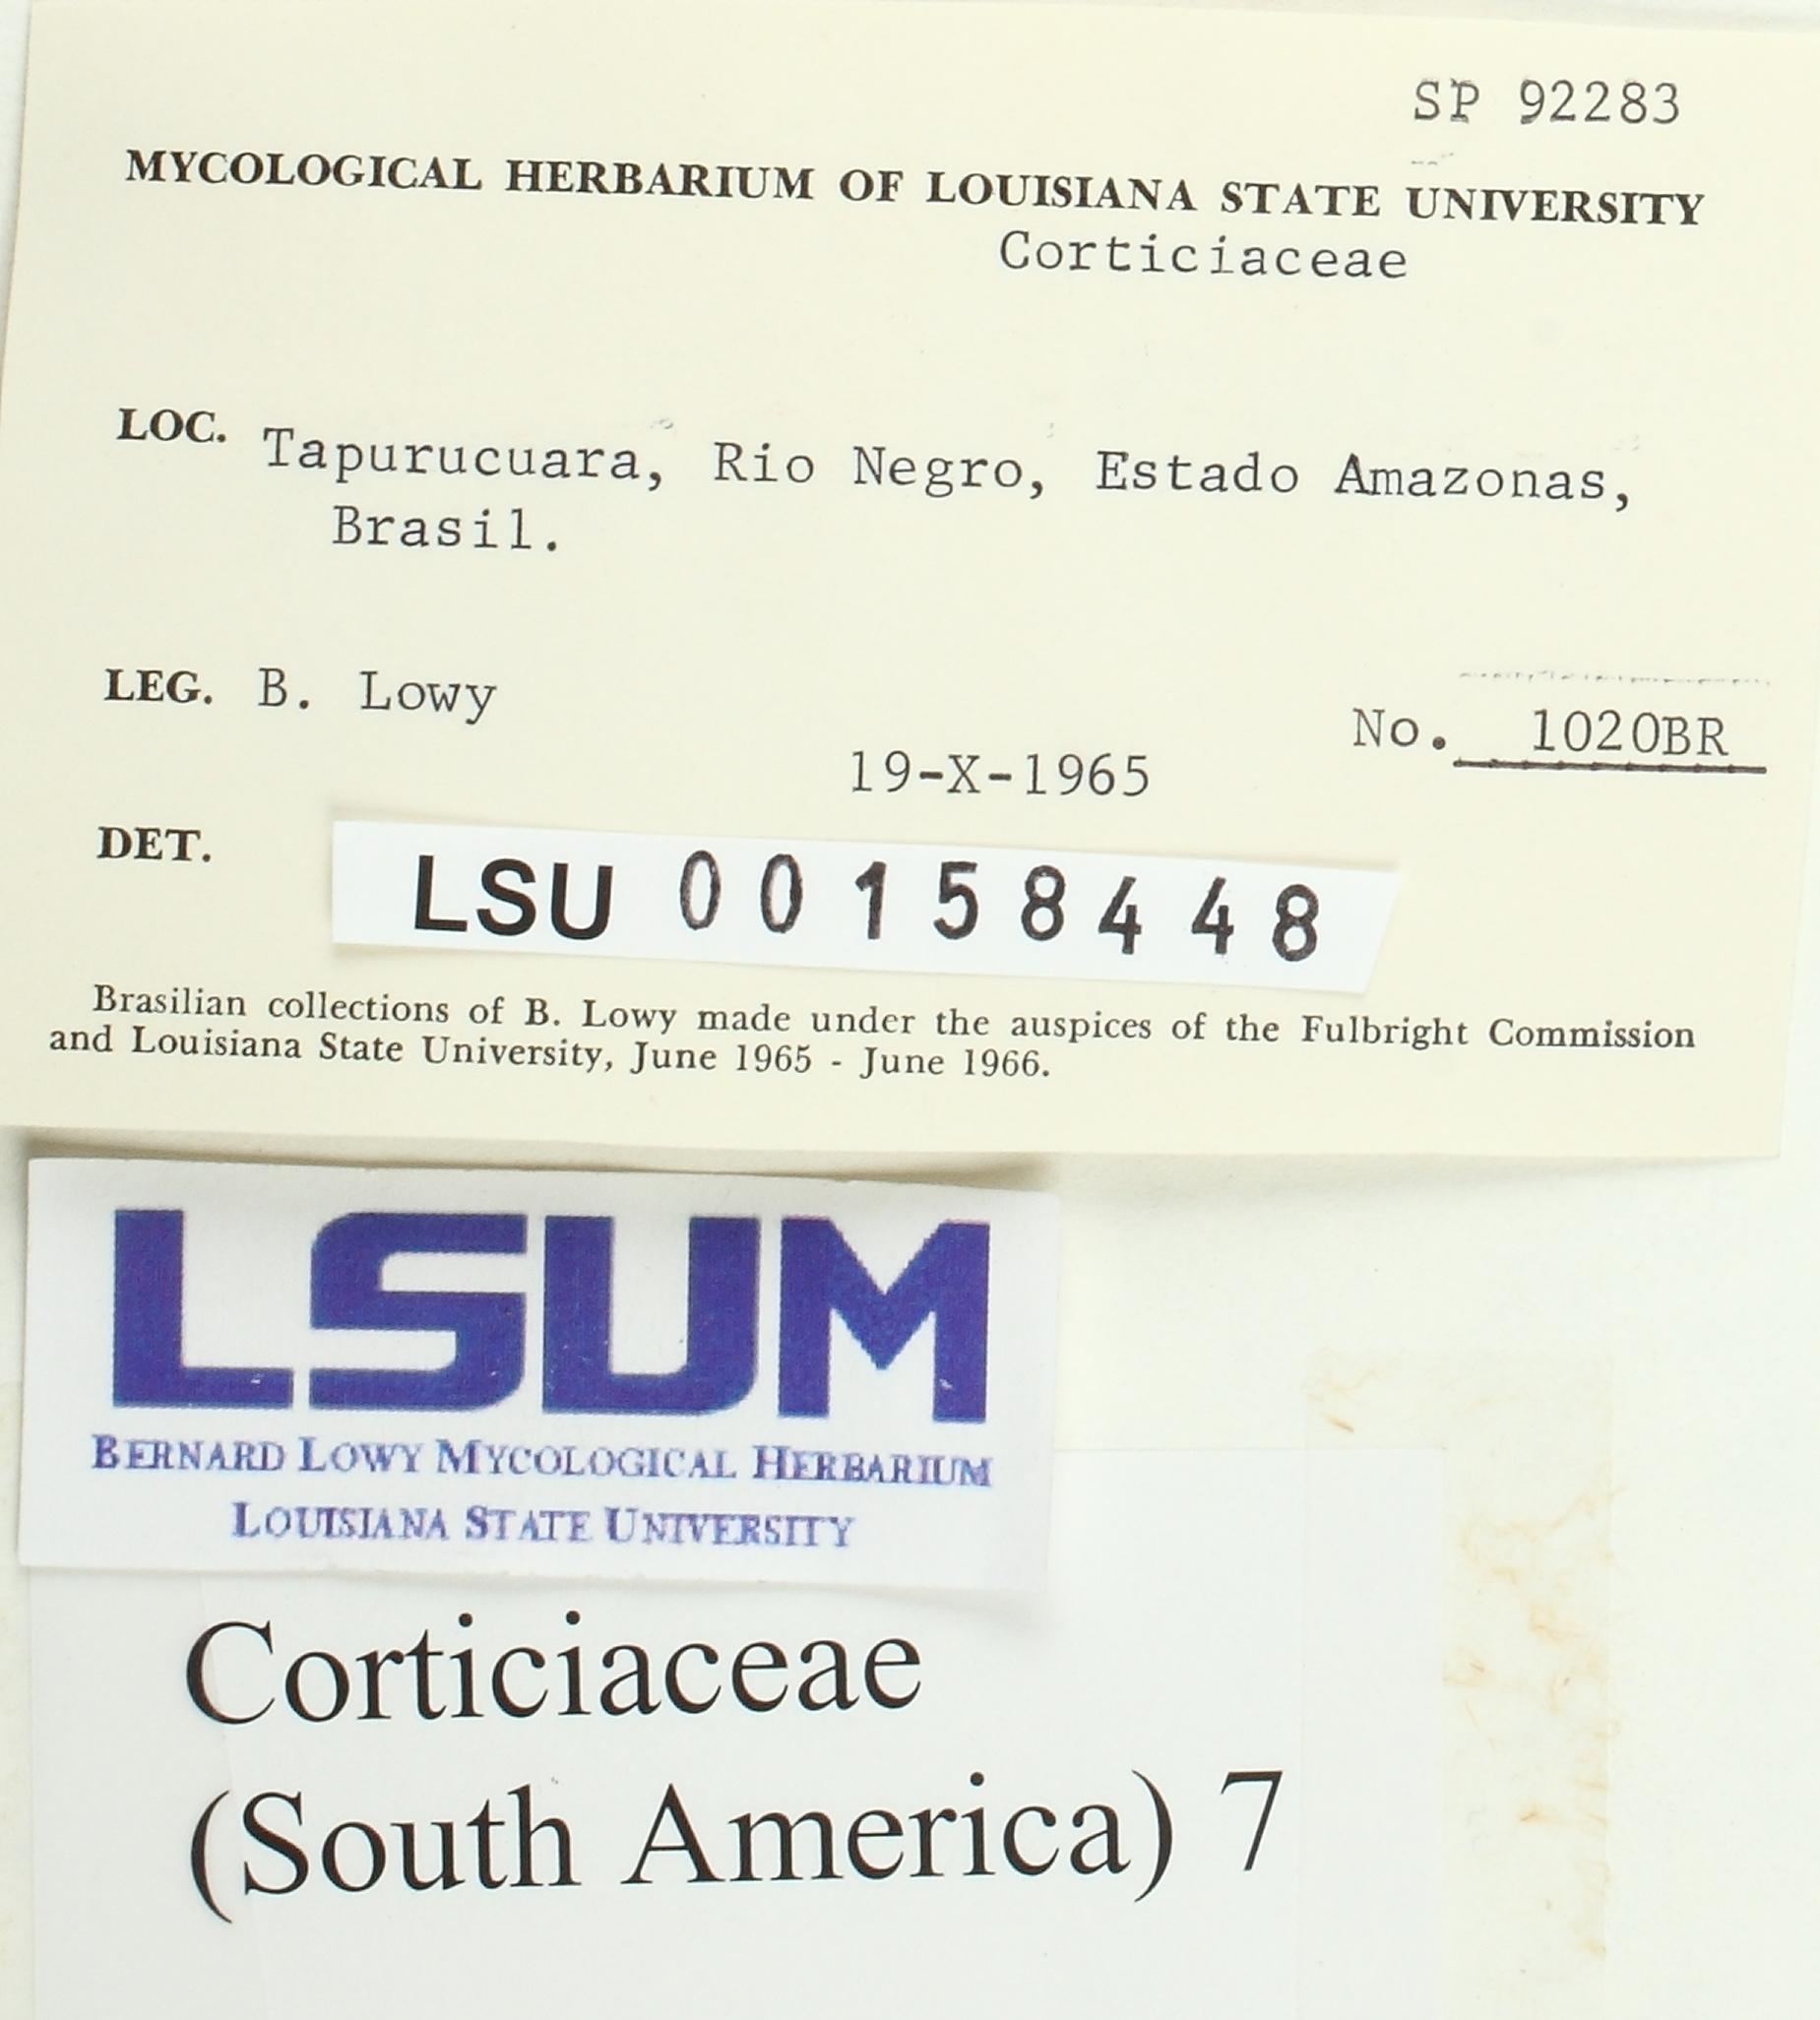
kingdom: Fungi
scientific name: Fungi
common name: Fungi
